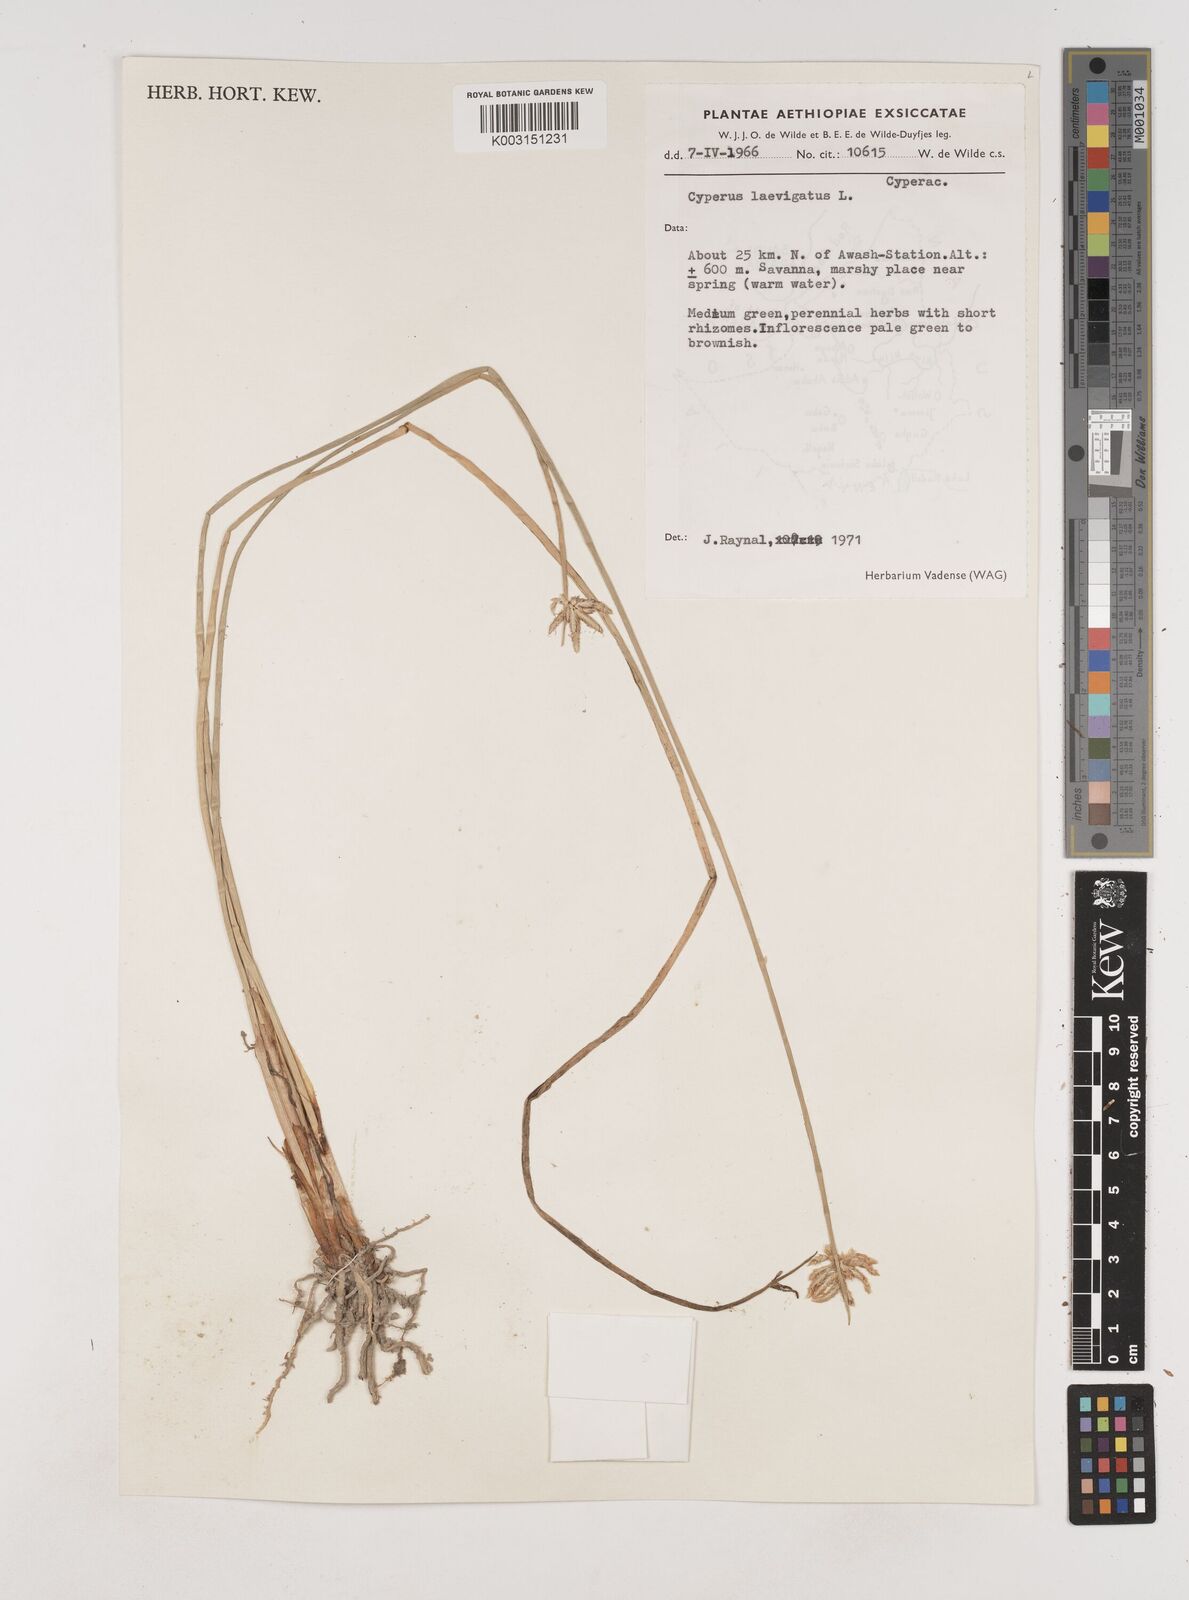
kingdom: Plantae
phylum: Tracheophyta
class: Liliopsida
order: Poales
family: Cyperaceae
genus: Cyperus
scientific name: Cyperus laevigatus
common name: Smooth flat sedge
